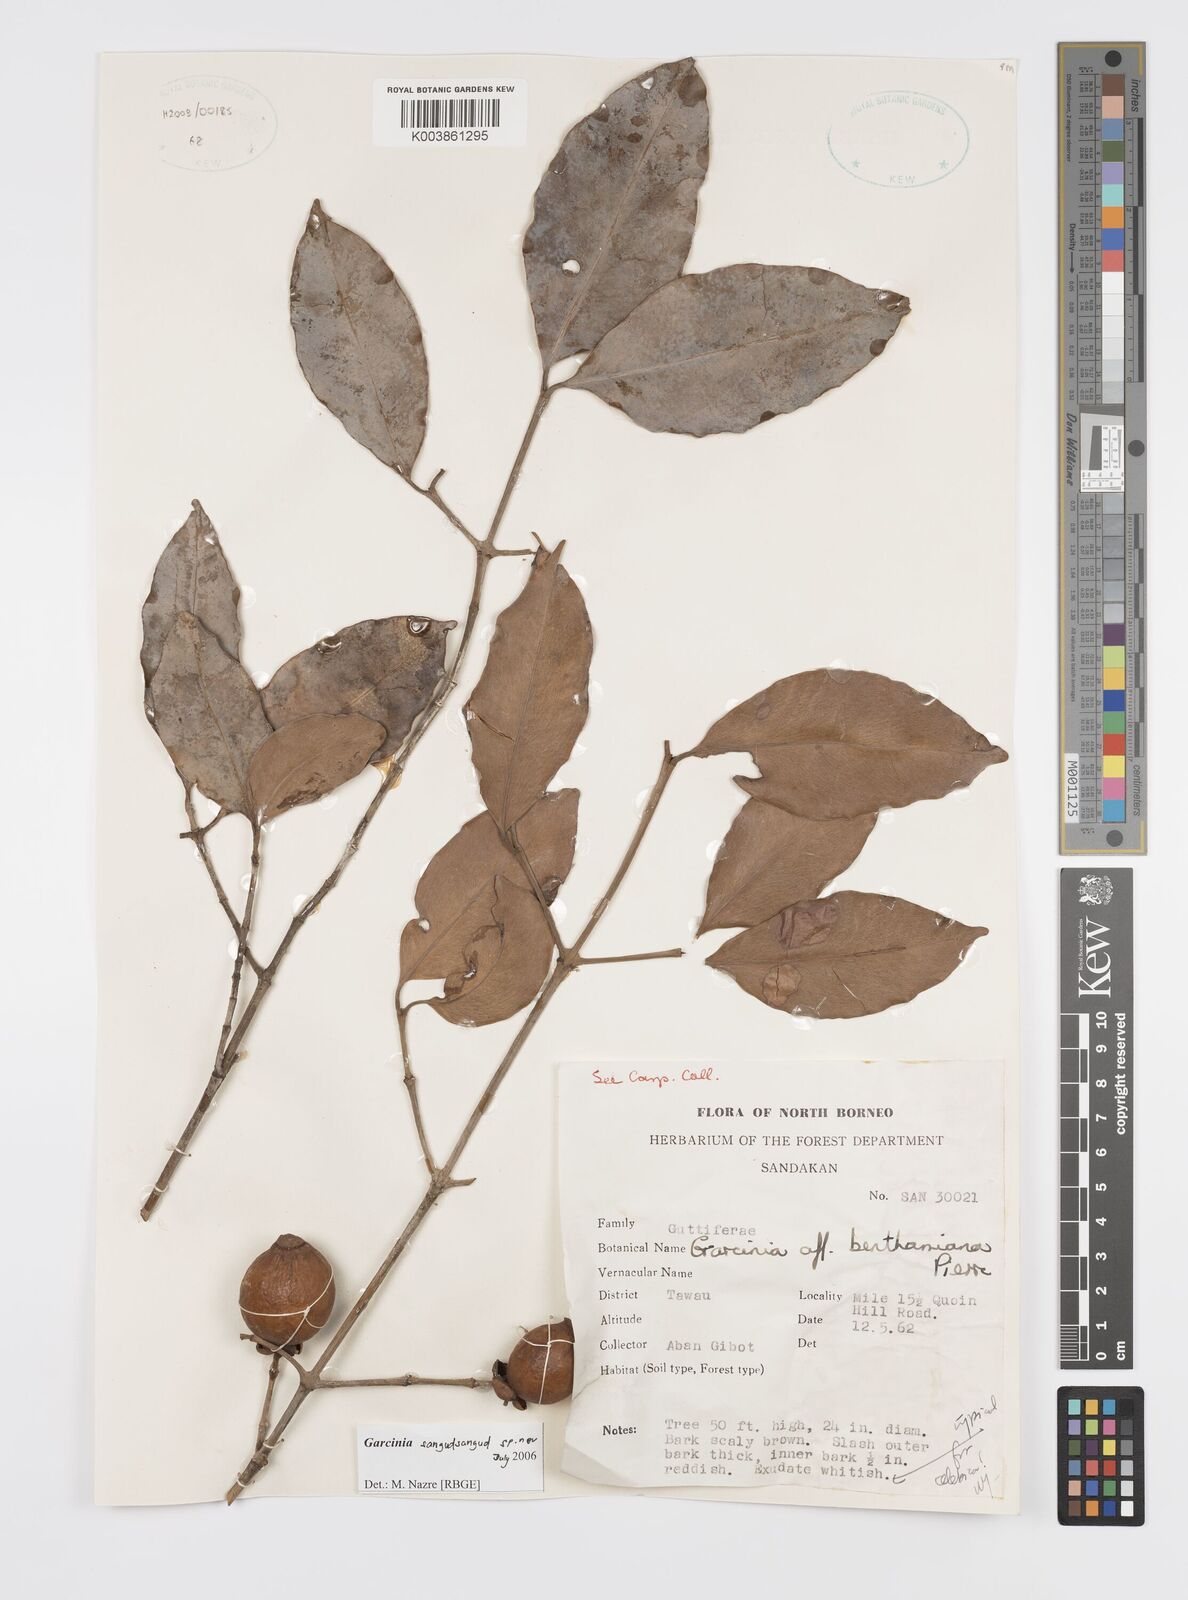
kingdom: Plantae
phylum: Tracheophyta
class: Magnoliopsida
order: Malpighiales
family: Clusiaceae
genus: Garcinia
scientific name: Garcinia sangudsangud
